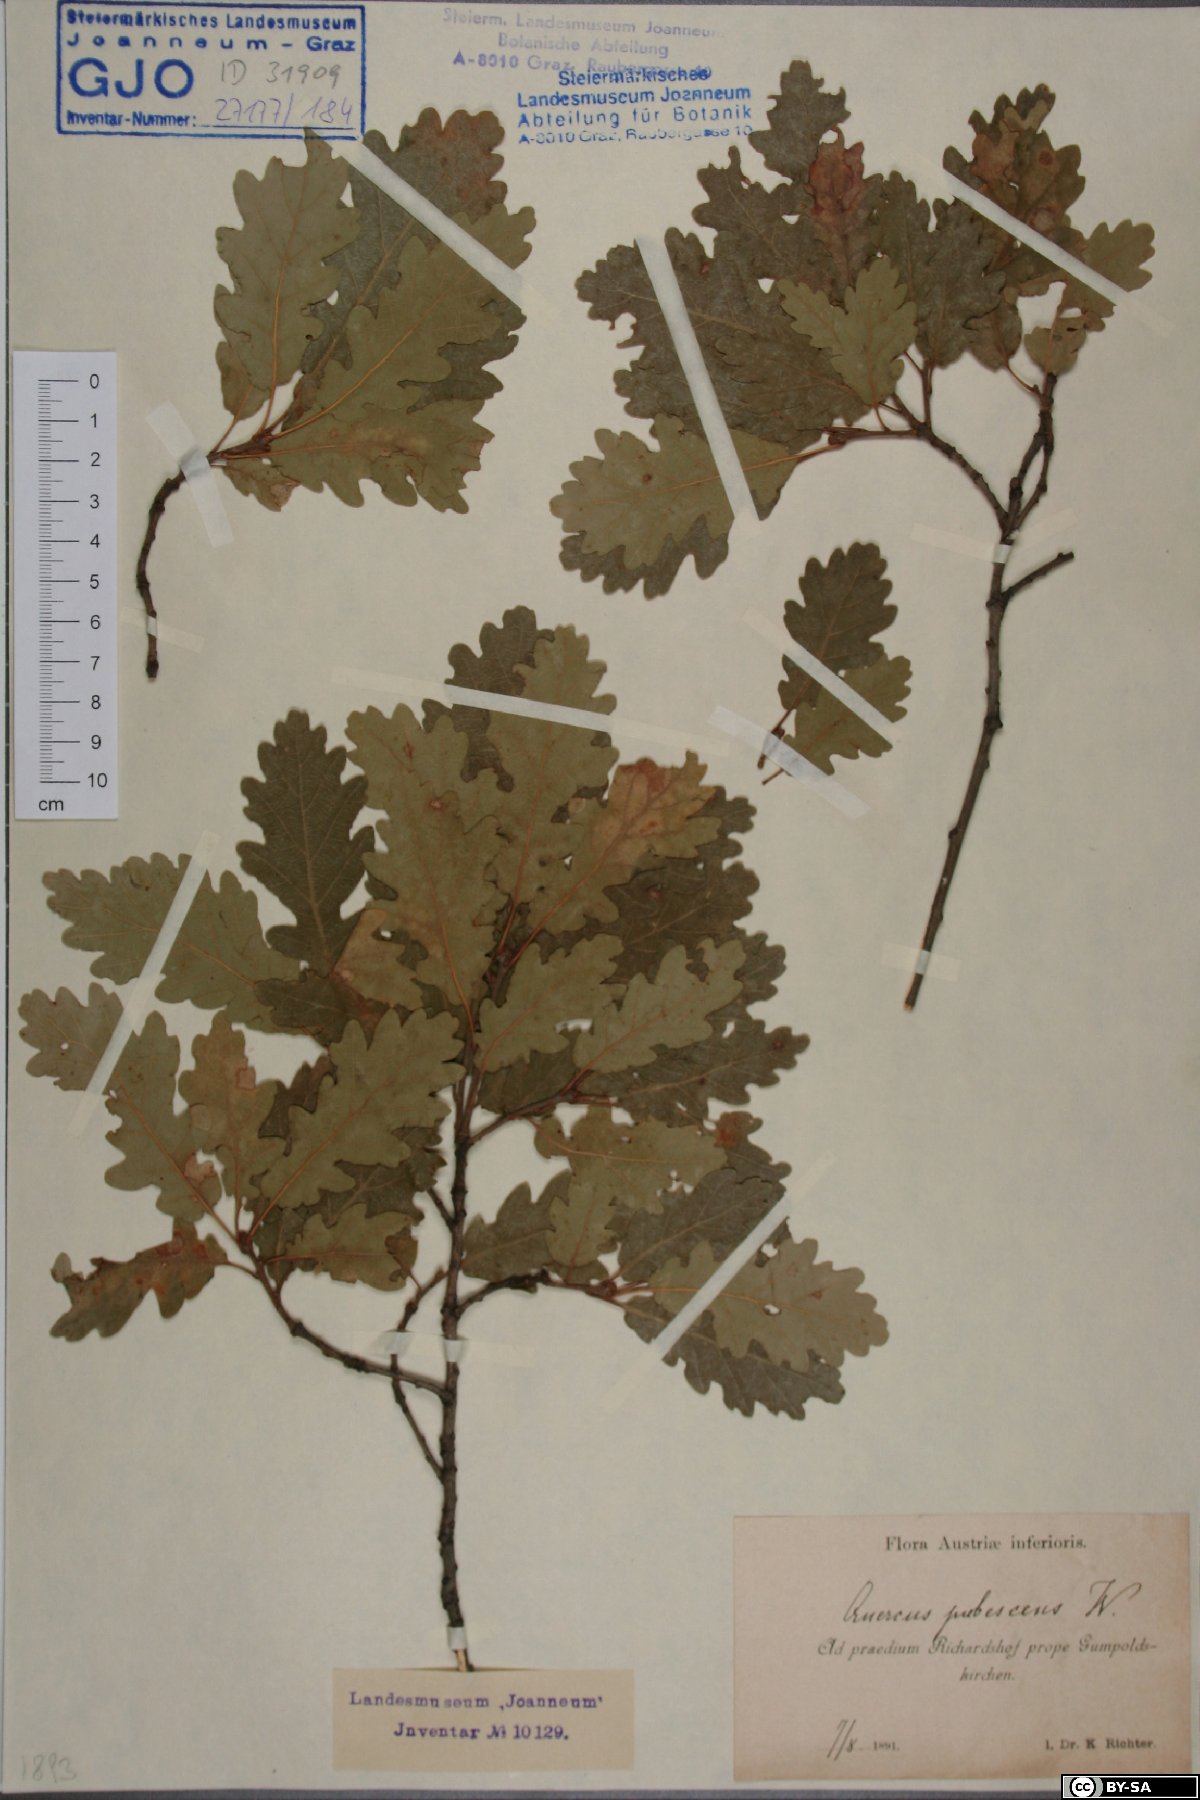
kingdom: Plantae
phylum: Tracheophyta
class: Magnoliopsida
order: Fagales
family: Fagaceae
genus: Quercus
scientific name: Quercus pubescens
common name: Downy oak
